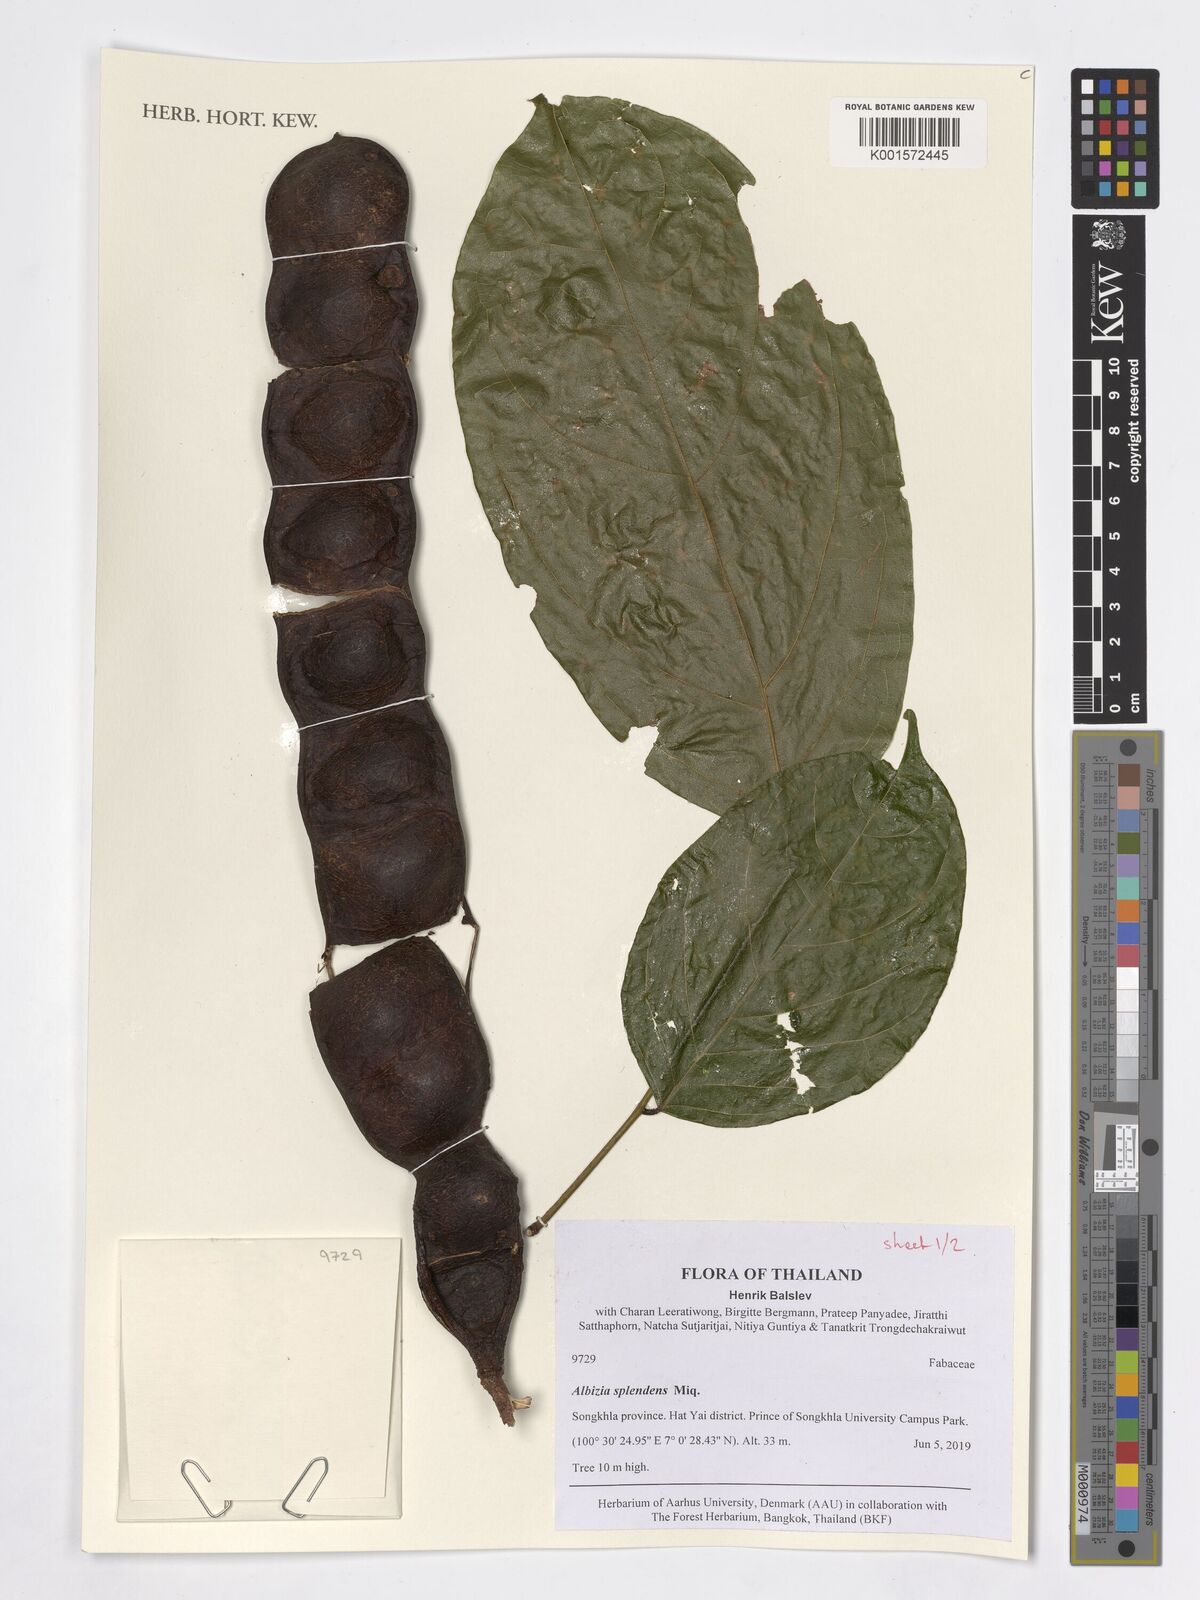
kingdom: Plantae
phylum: Tracheophyta
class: Magnoliopsida
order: Fabales
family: Fabaceae
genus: Albizia
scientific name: Albizia splendens
